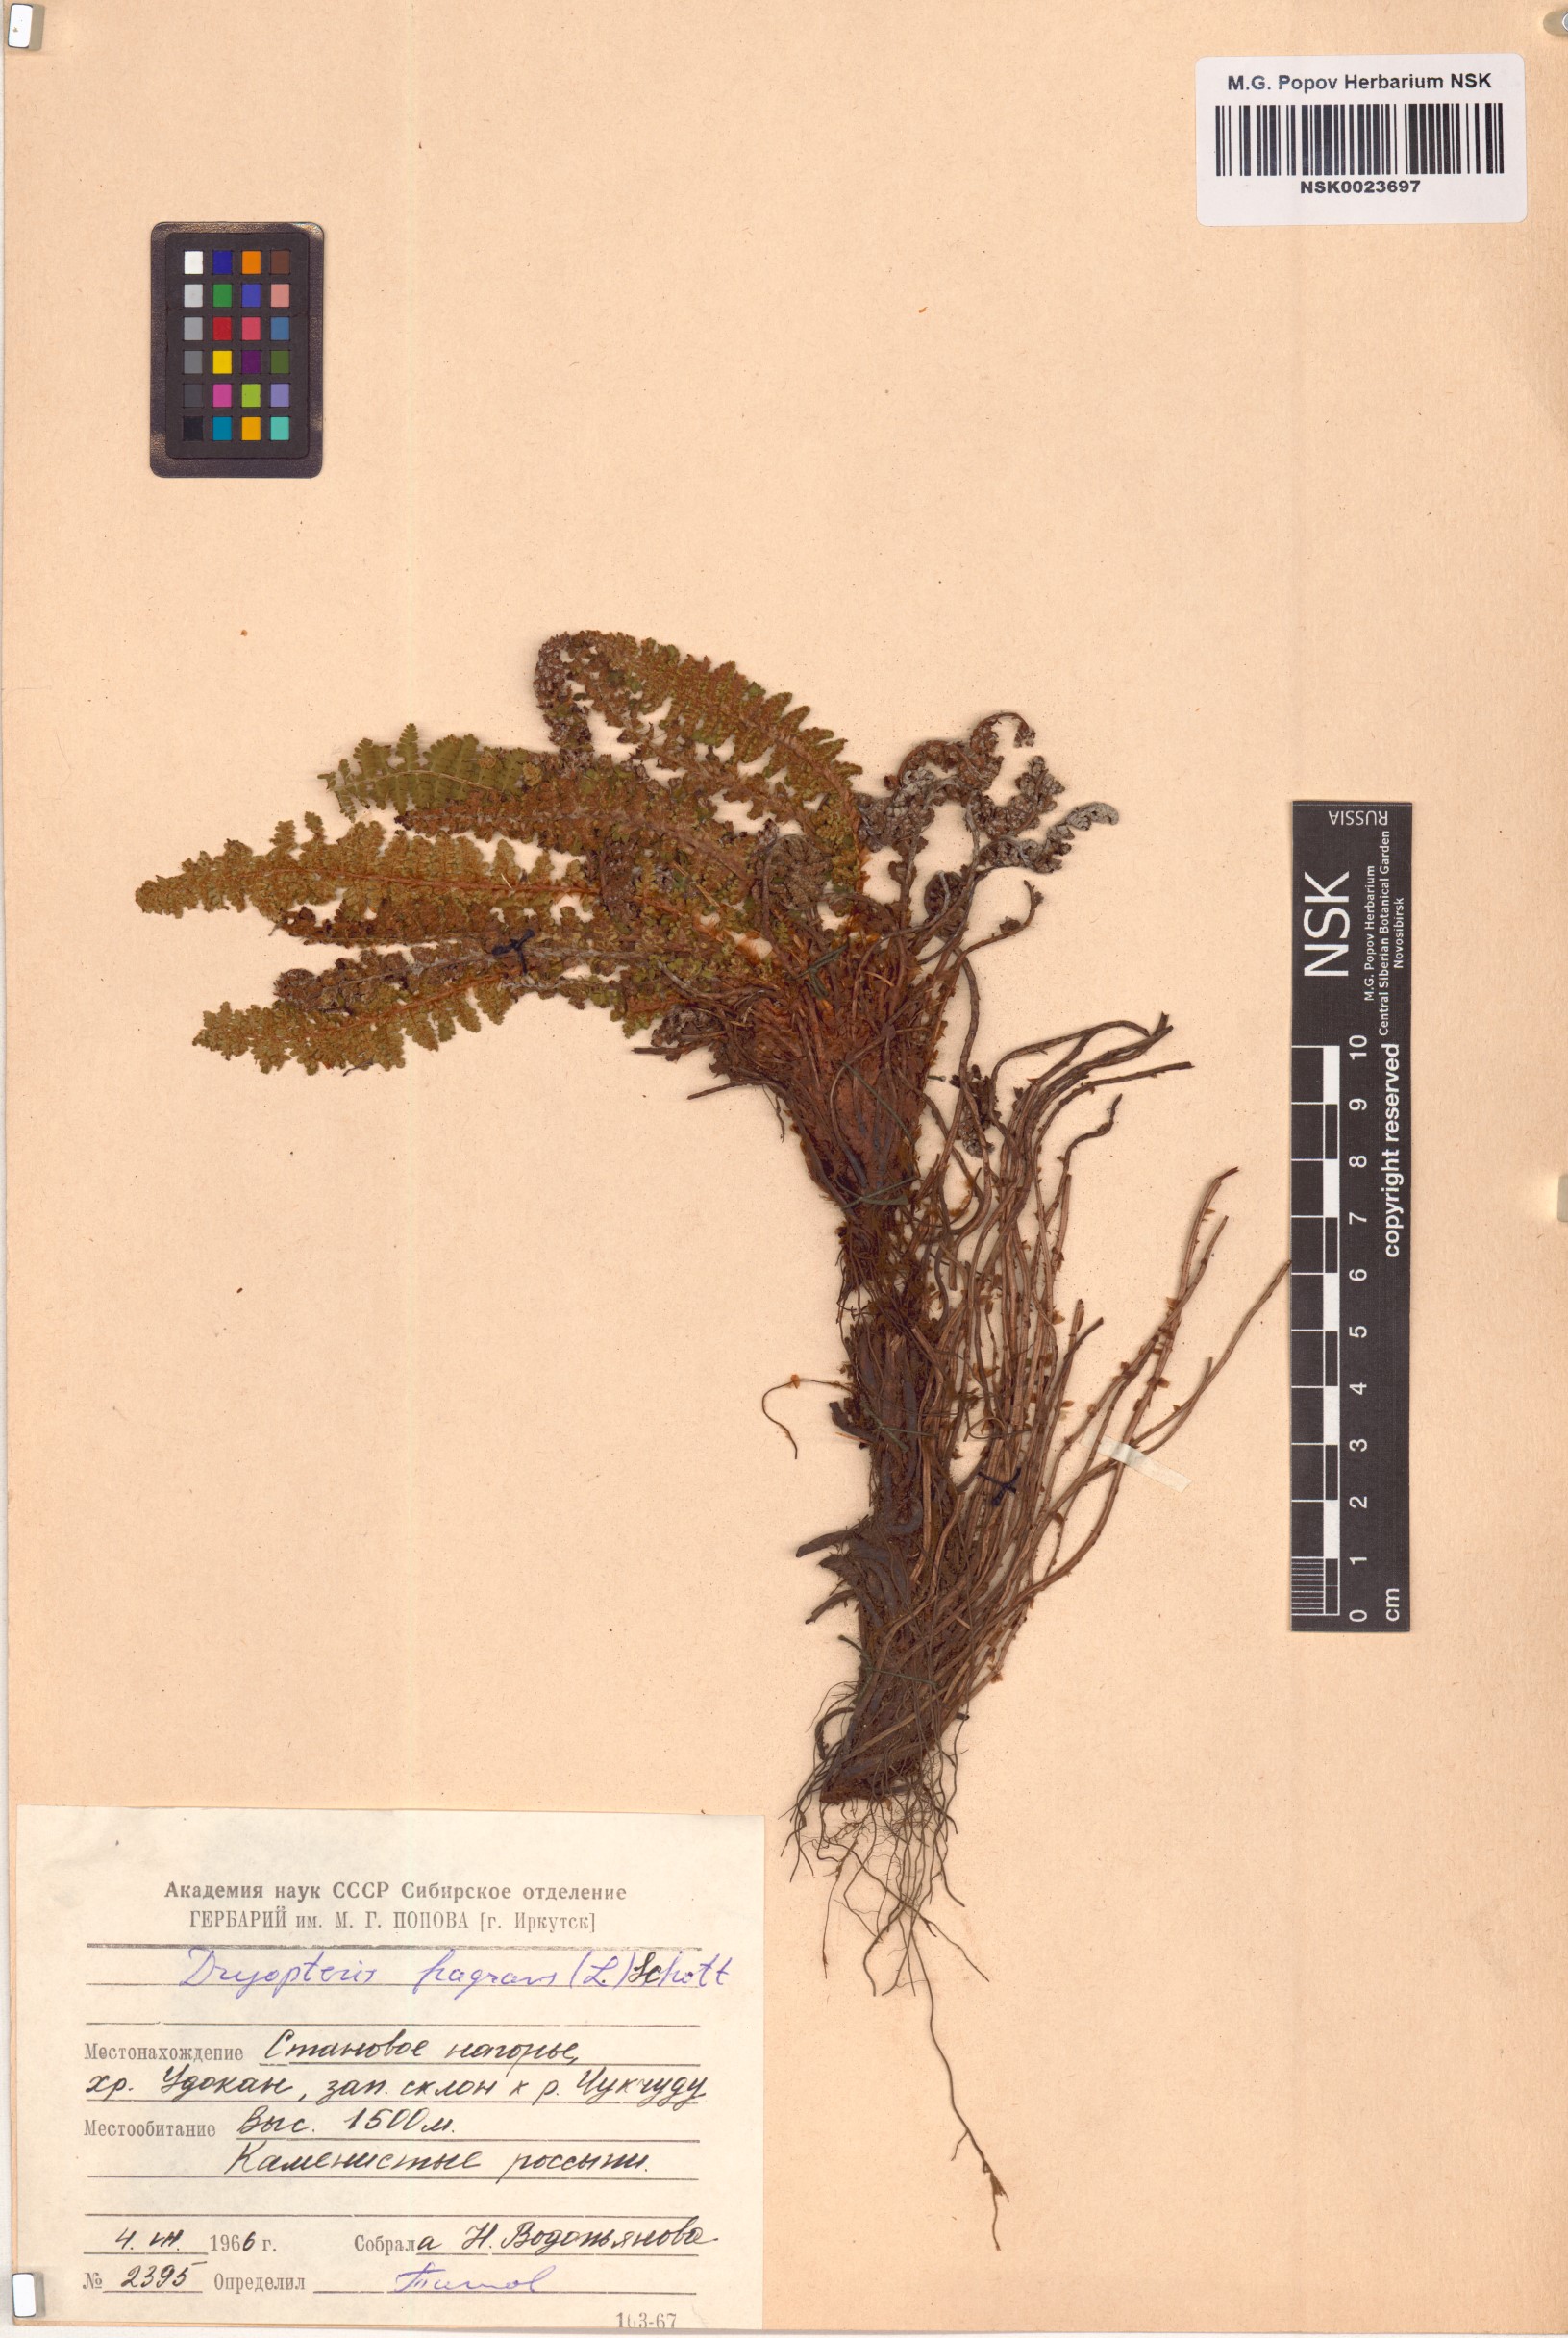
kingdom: Plantae
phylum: Tracheophyta
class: Polypodiopsida
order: Polypodiales
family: Dryopteridaceae
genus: Dryopteris
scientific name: Dryopteris fragrans
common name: Fragrant wood fern
